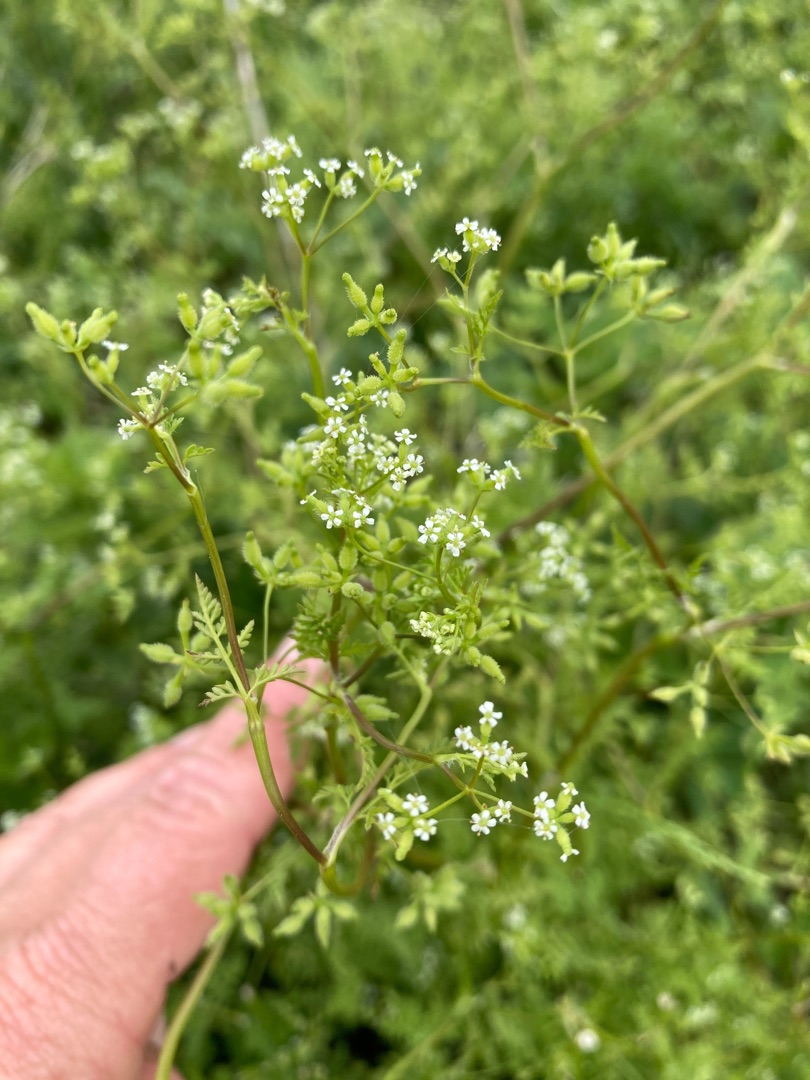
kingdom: Plantae
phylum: Tracheophyta
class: Magnoliopsida
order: Apiales
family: Apiaceae
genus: Anthriscus
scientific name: Anthriscus caucalis
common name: Gærde-kørvel
